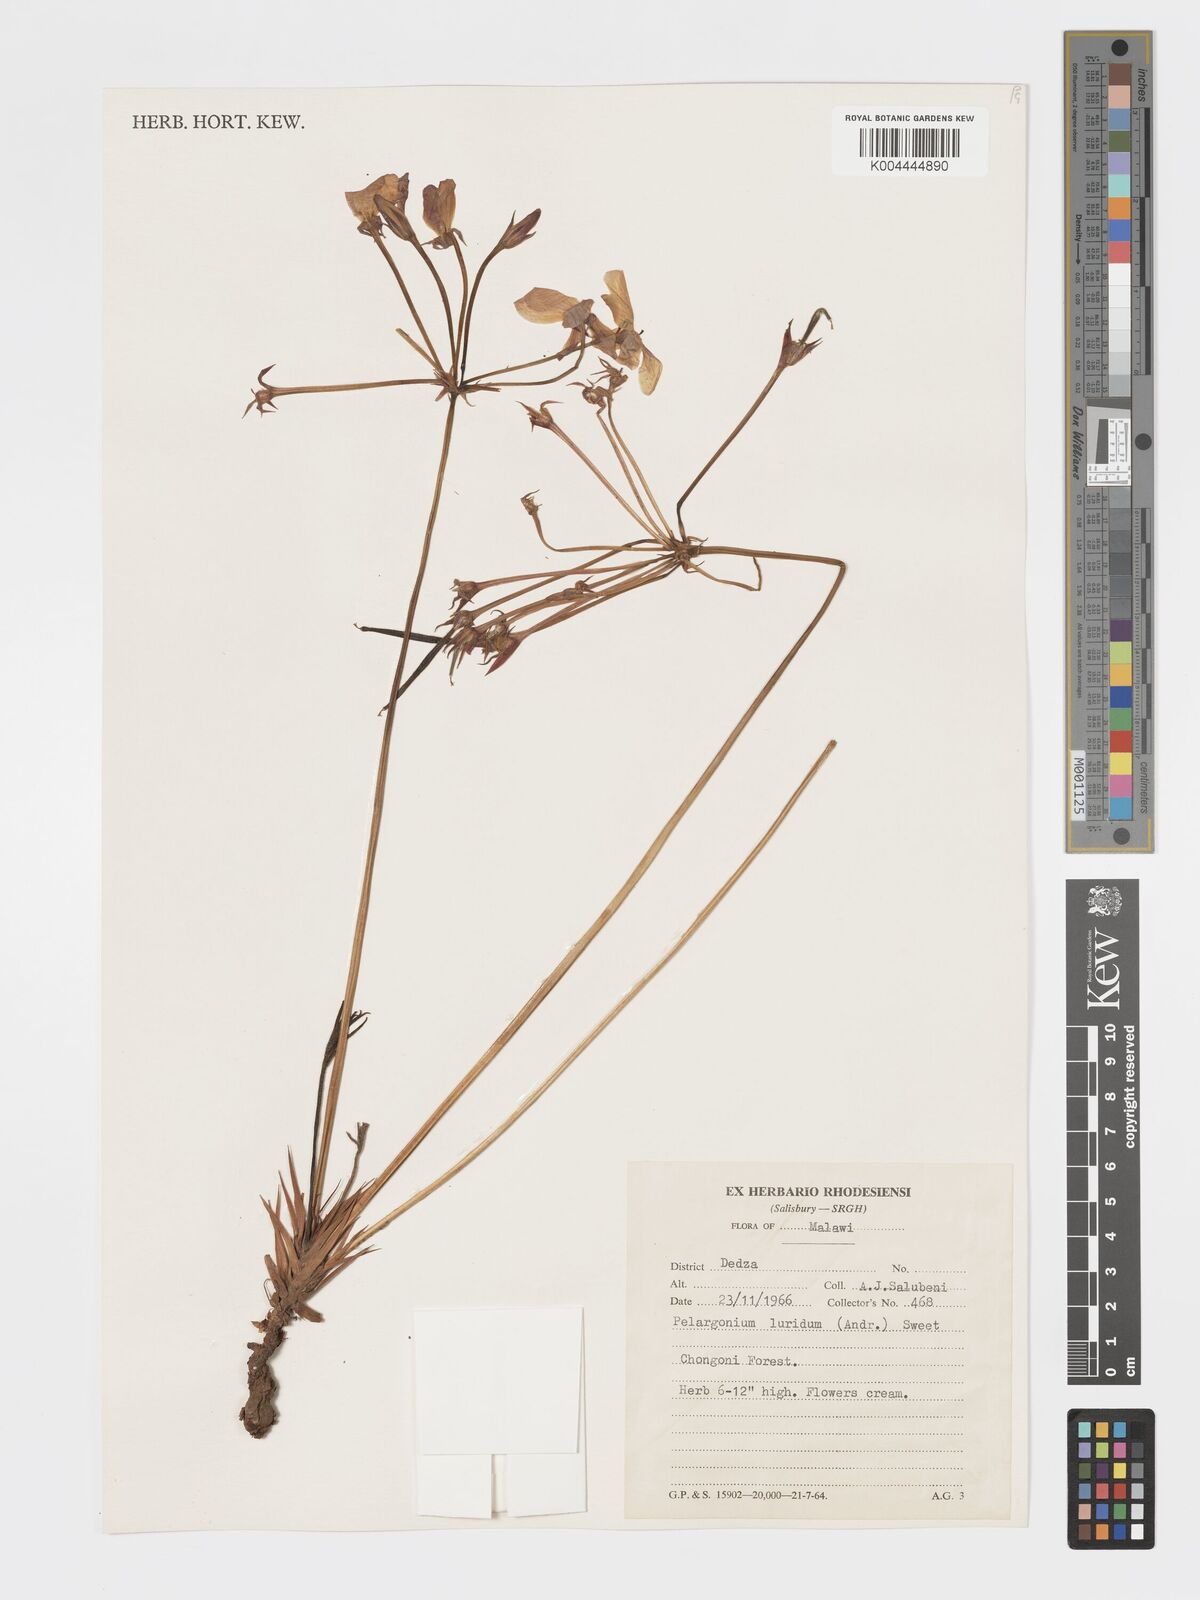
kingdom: Plantae
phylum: Tracheophyta
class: Magnoliopsida
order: Geraniales
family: Geraniaceae
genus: Pelargonium
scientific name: Pelargonium luridum
